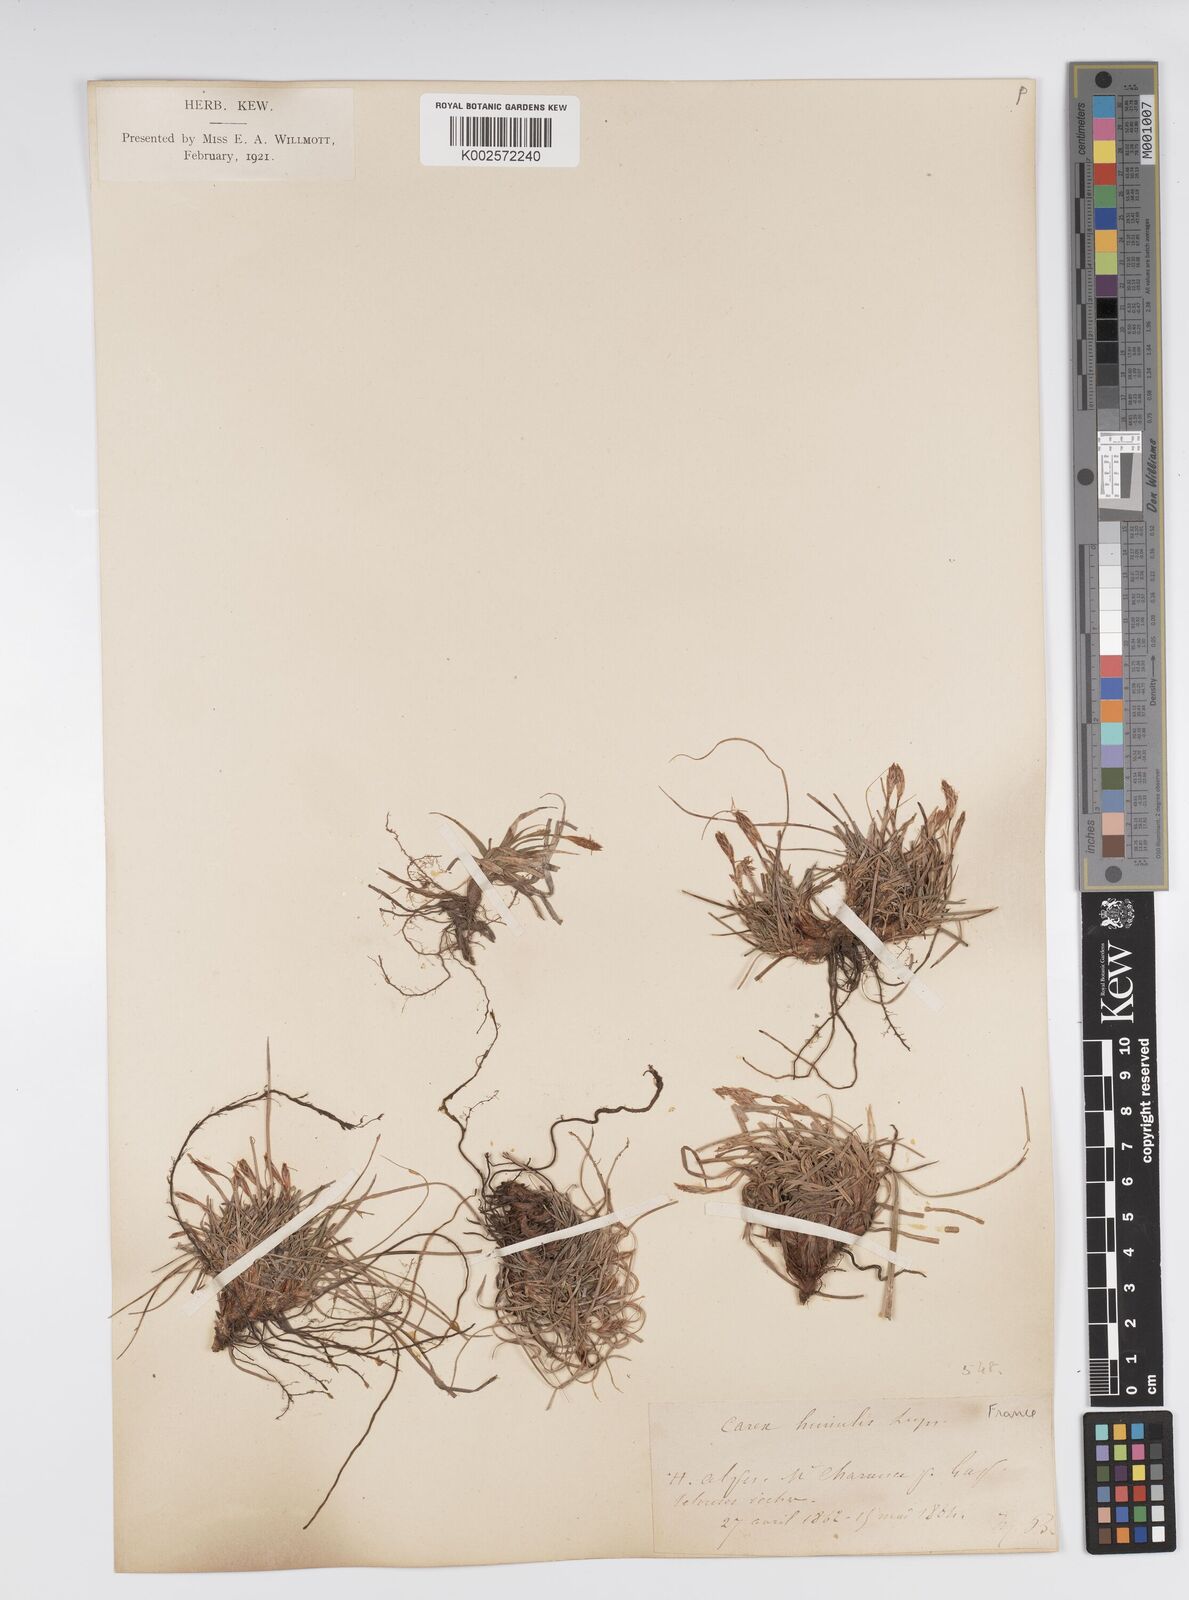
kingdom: Plantae
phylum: Tracheophyta
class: Liliopsida
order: Poales
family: Cyperaceae
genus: Carex
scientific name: Carex humilis
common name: Dwarf sedge
